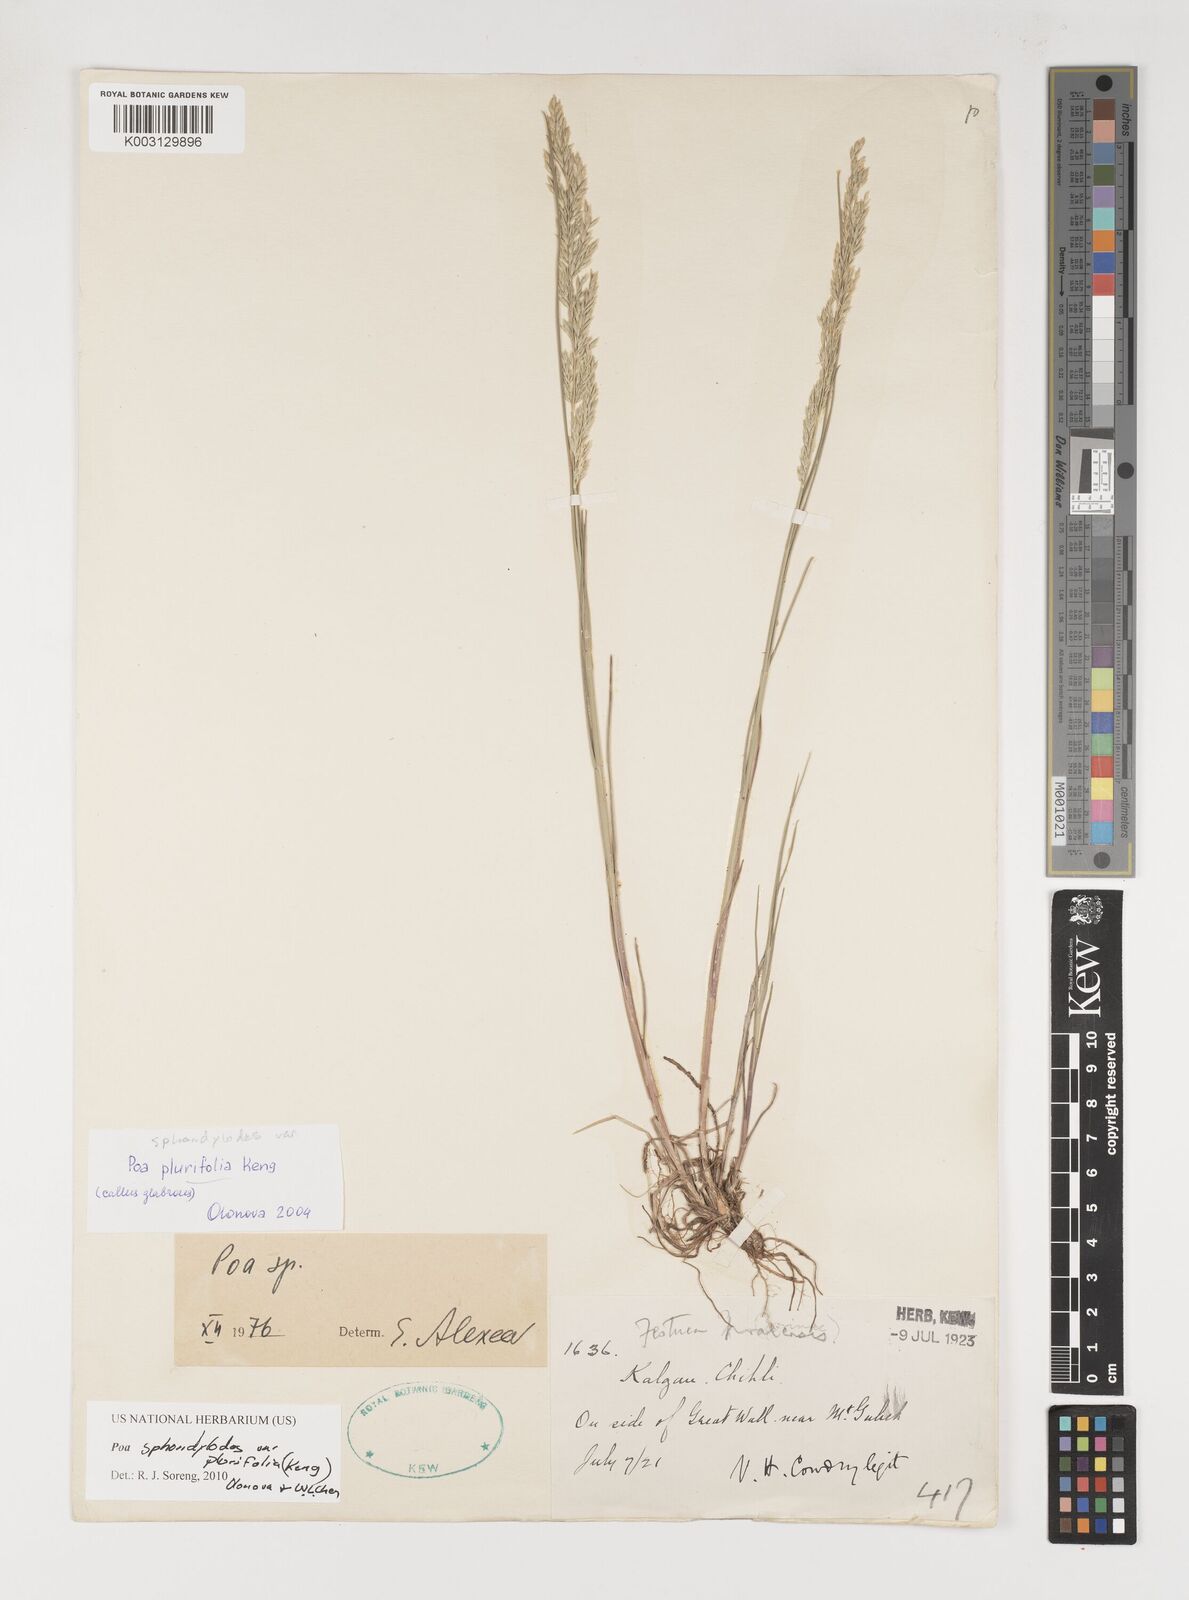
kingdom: Plantae
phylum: Tracheophyta
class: Liliopsida
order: Poales
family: Poaceae
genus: Poa
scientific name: Poa sphondylodes
